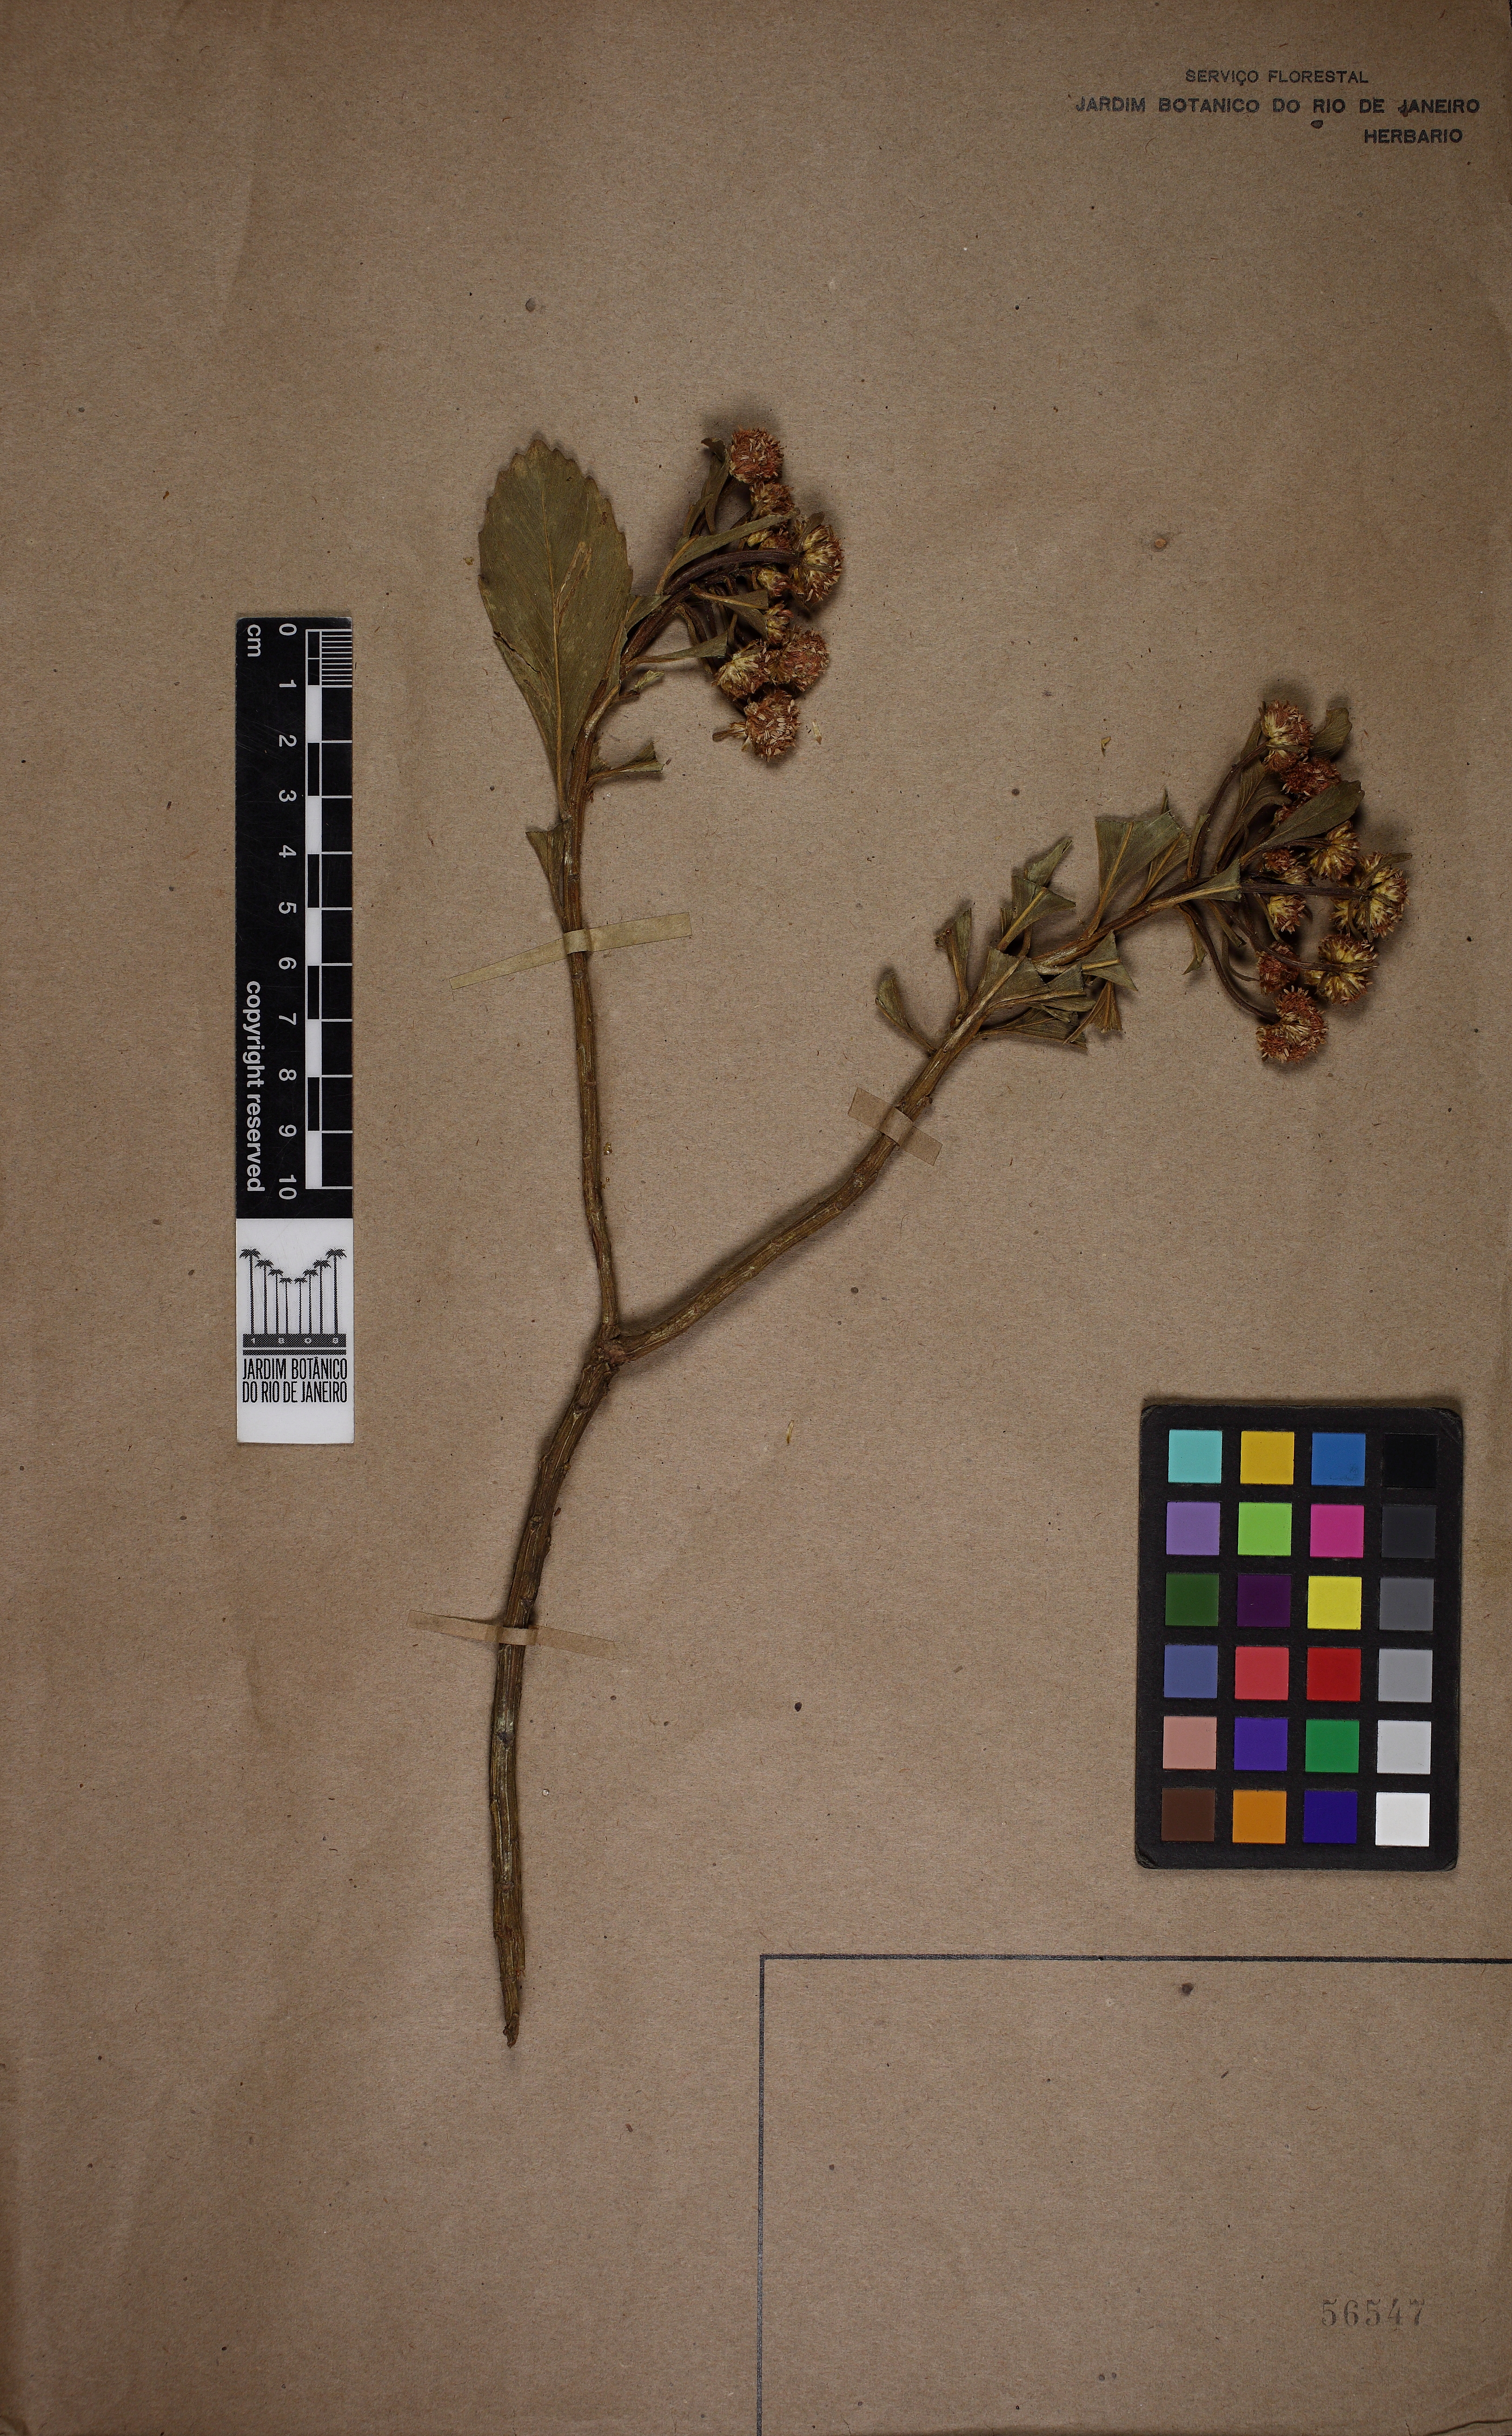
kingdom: Plantae
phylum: Tracheophyta
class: Magnoliopsida
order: Asterales
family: Asteraceae
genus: Baccharis
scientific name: Baccharis platypoda
